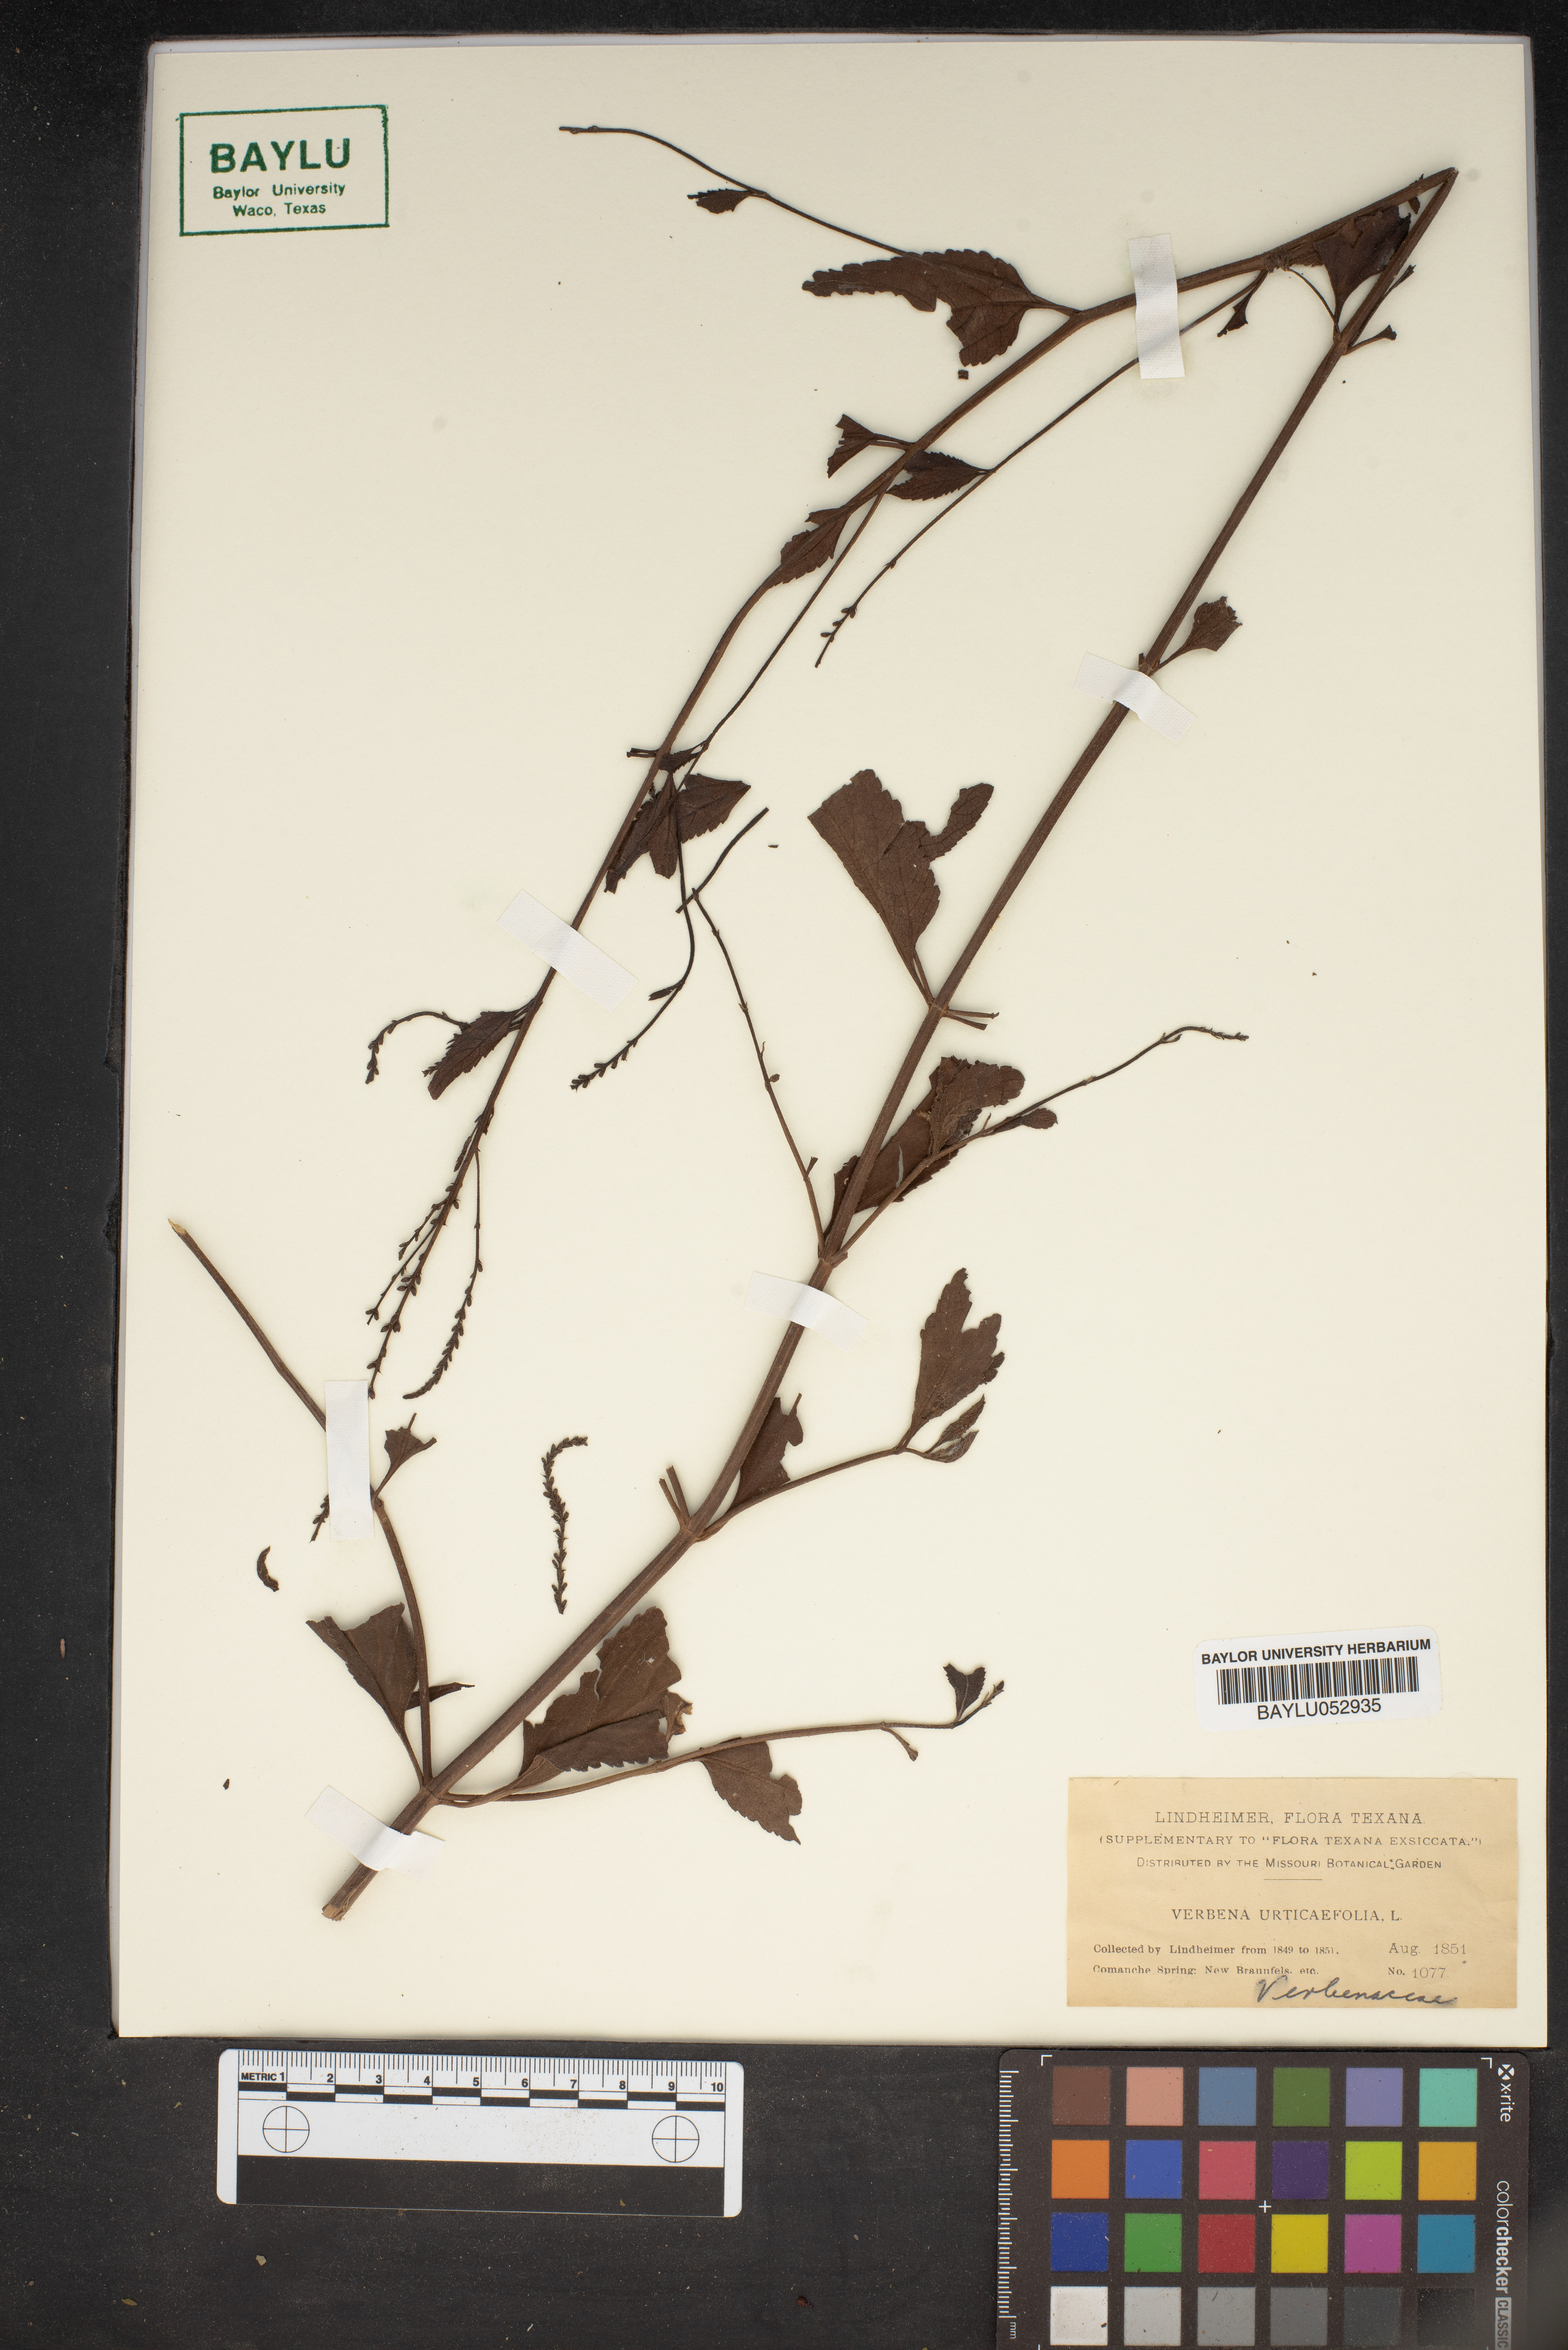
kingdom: Plantae
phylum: Tracheophyta
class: Magnoliopsida
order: Lamiales
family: Verbenaceae
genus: Verbena
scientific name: Verbena urticifolia
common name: Nettle-leaved vervain
